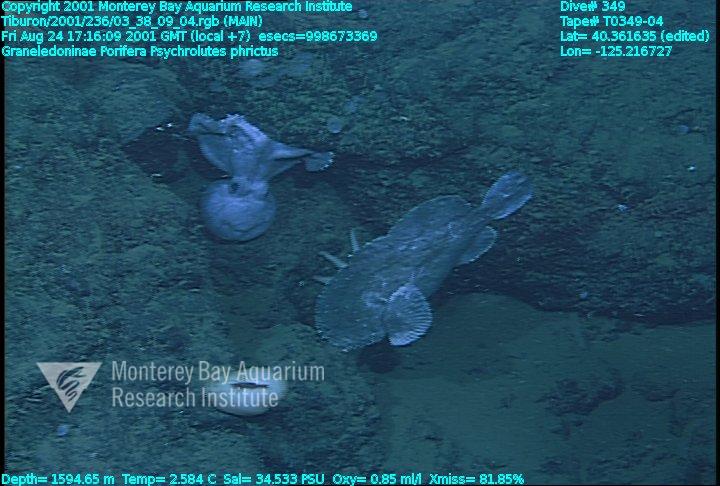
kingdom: Animalia
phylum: Porifera
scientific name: Porifera
